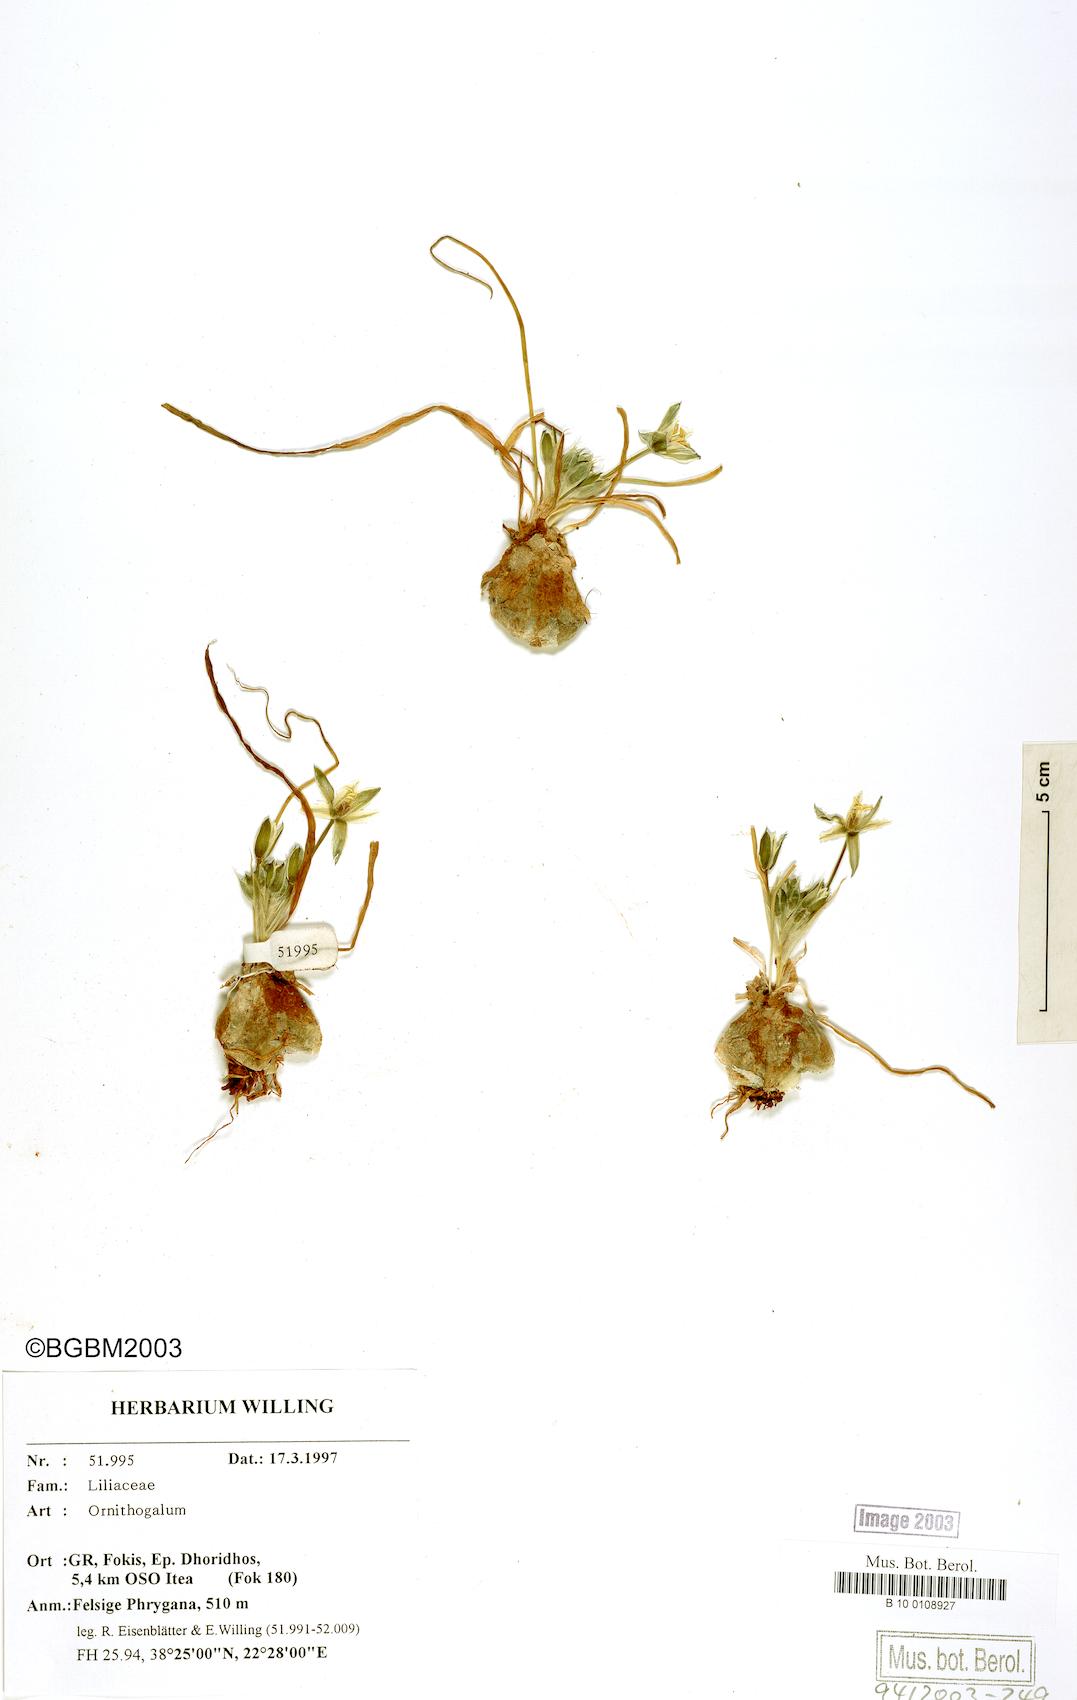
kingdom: Plantae
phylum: Tracheophyta
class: Liliopsida
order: Asparagales
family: Asparagaceae
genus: Ornithogalum
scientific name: Ornithogalum
